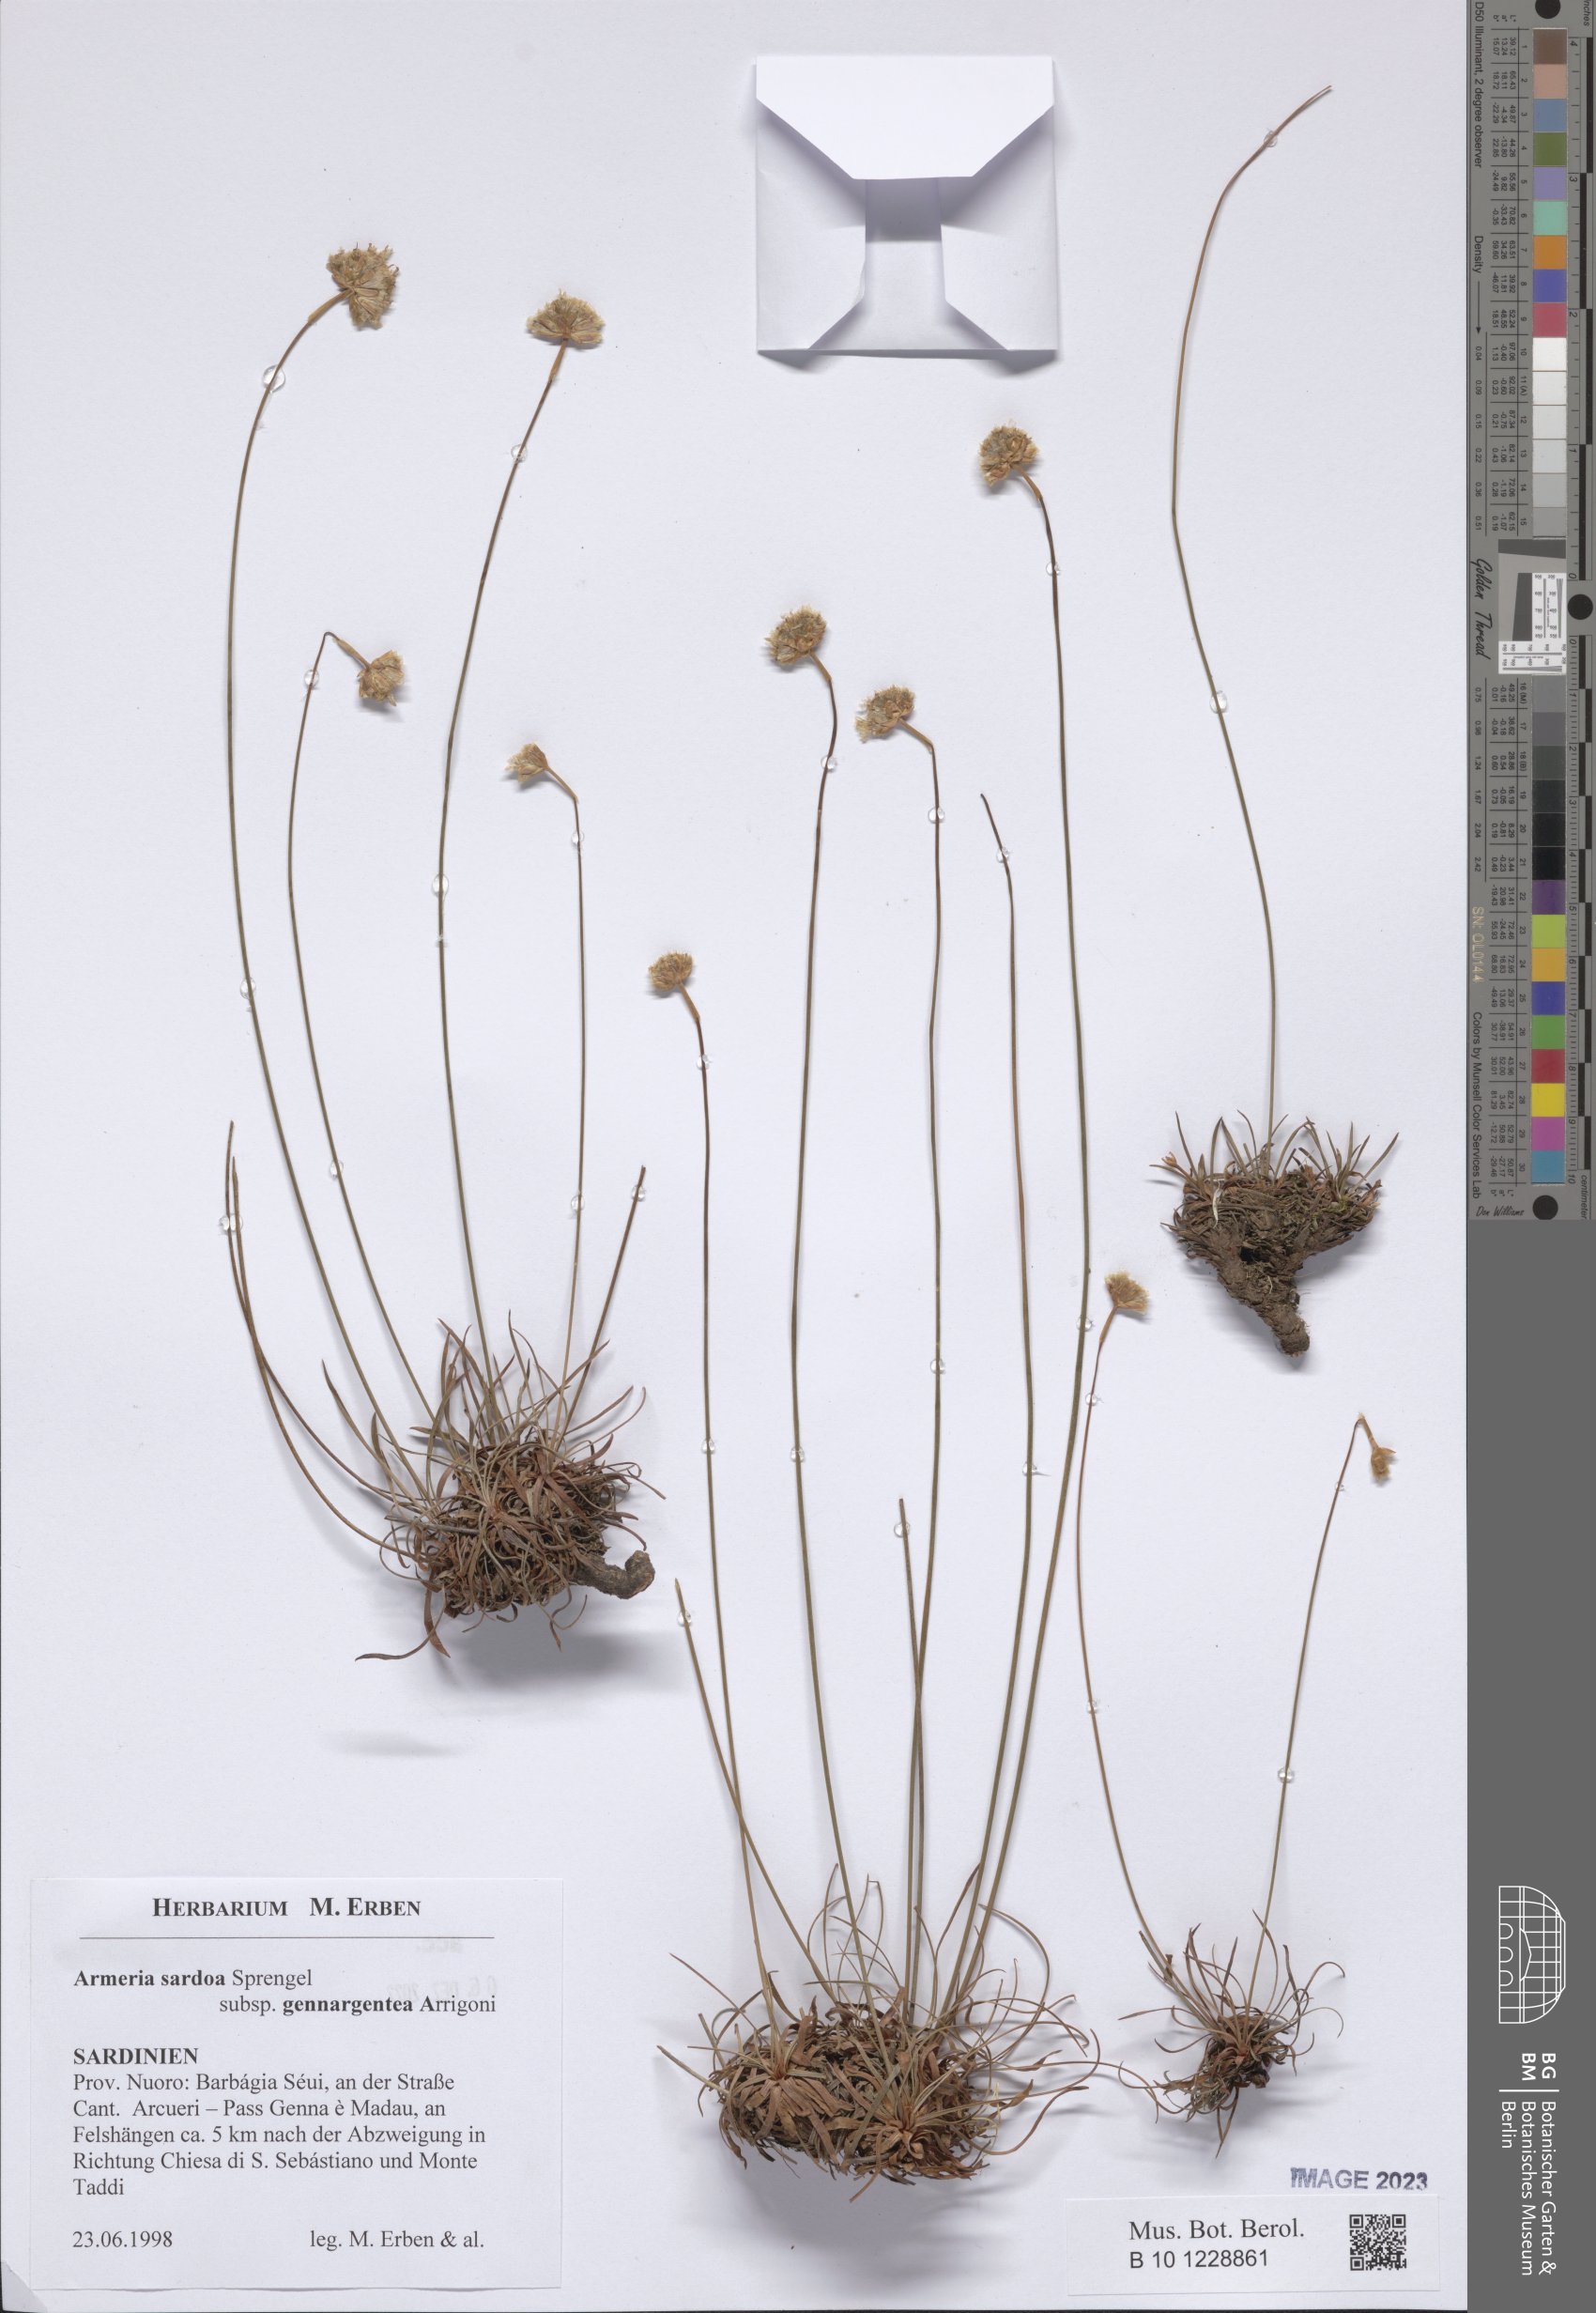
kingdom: Plantae
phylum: Tracheophyta
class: Magnoliopsida
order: Caryophyllales
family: Plumbaginaceae
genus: Armeria
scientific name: Armeria sardoa
